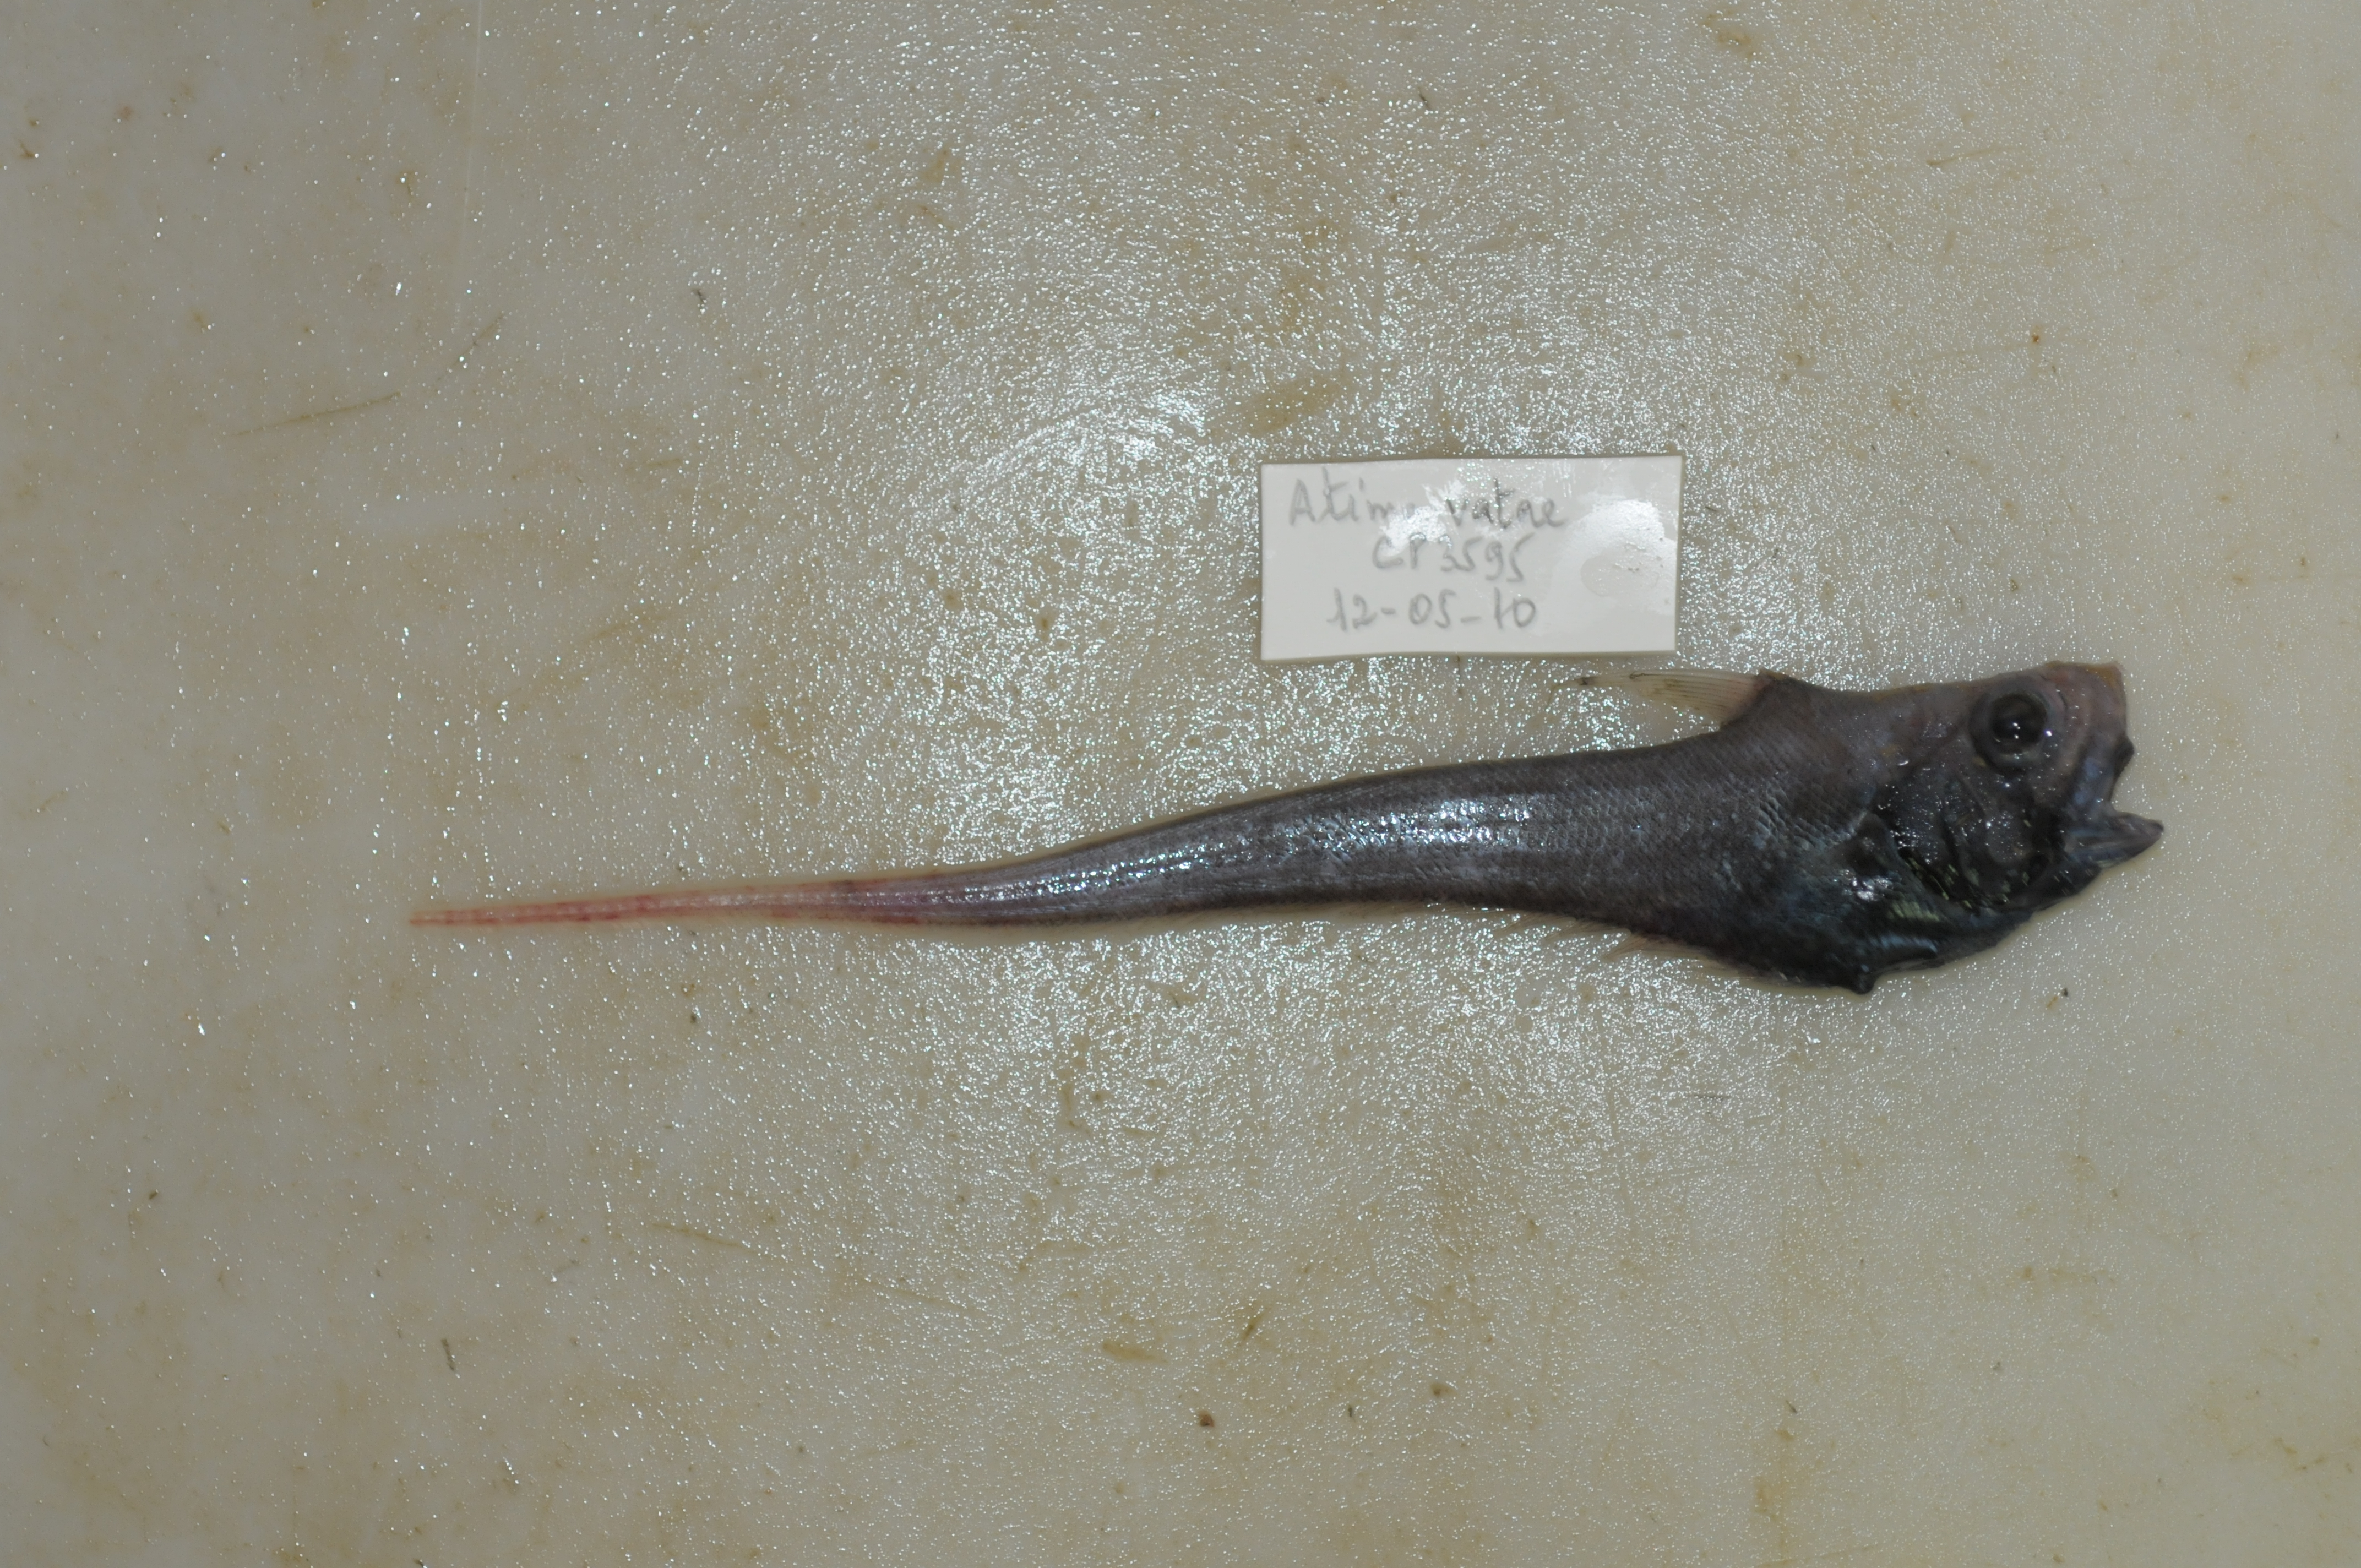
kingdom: Animalia
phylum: Chordata
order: Gadiformes
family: Macrouridae
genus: Sphagemacrurus
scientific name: Sphagemacrurus richardi
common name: Richard's whiptail
